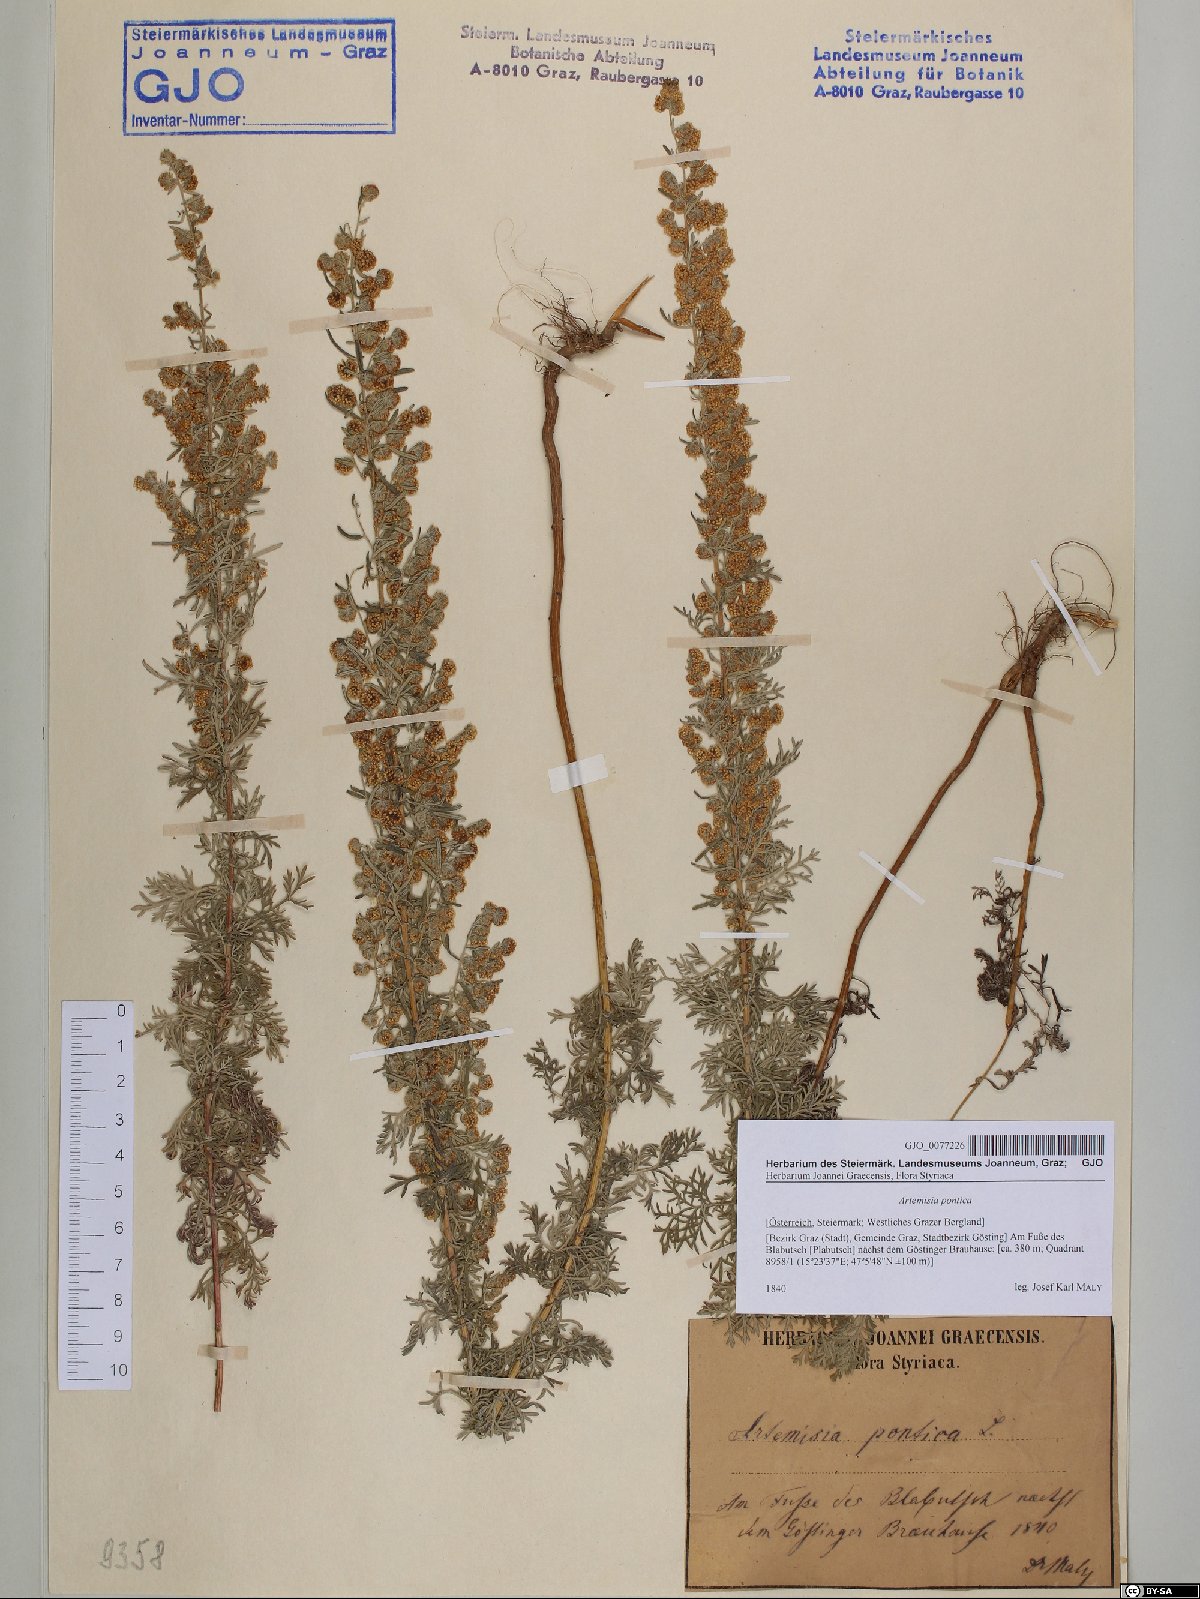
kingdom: Plantae
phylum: Tracheophyta
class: Magnoliopsida
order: Asterales
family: Asteraceae
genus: Artemisia
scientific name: Artemisia pontica
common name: Roman wormwood
